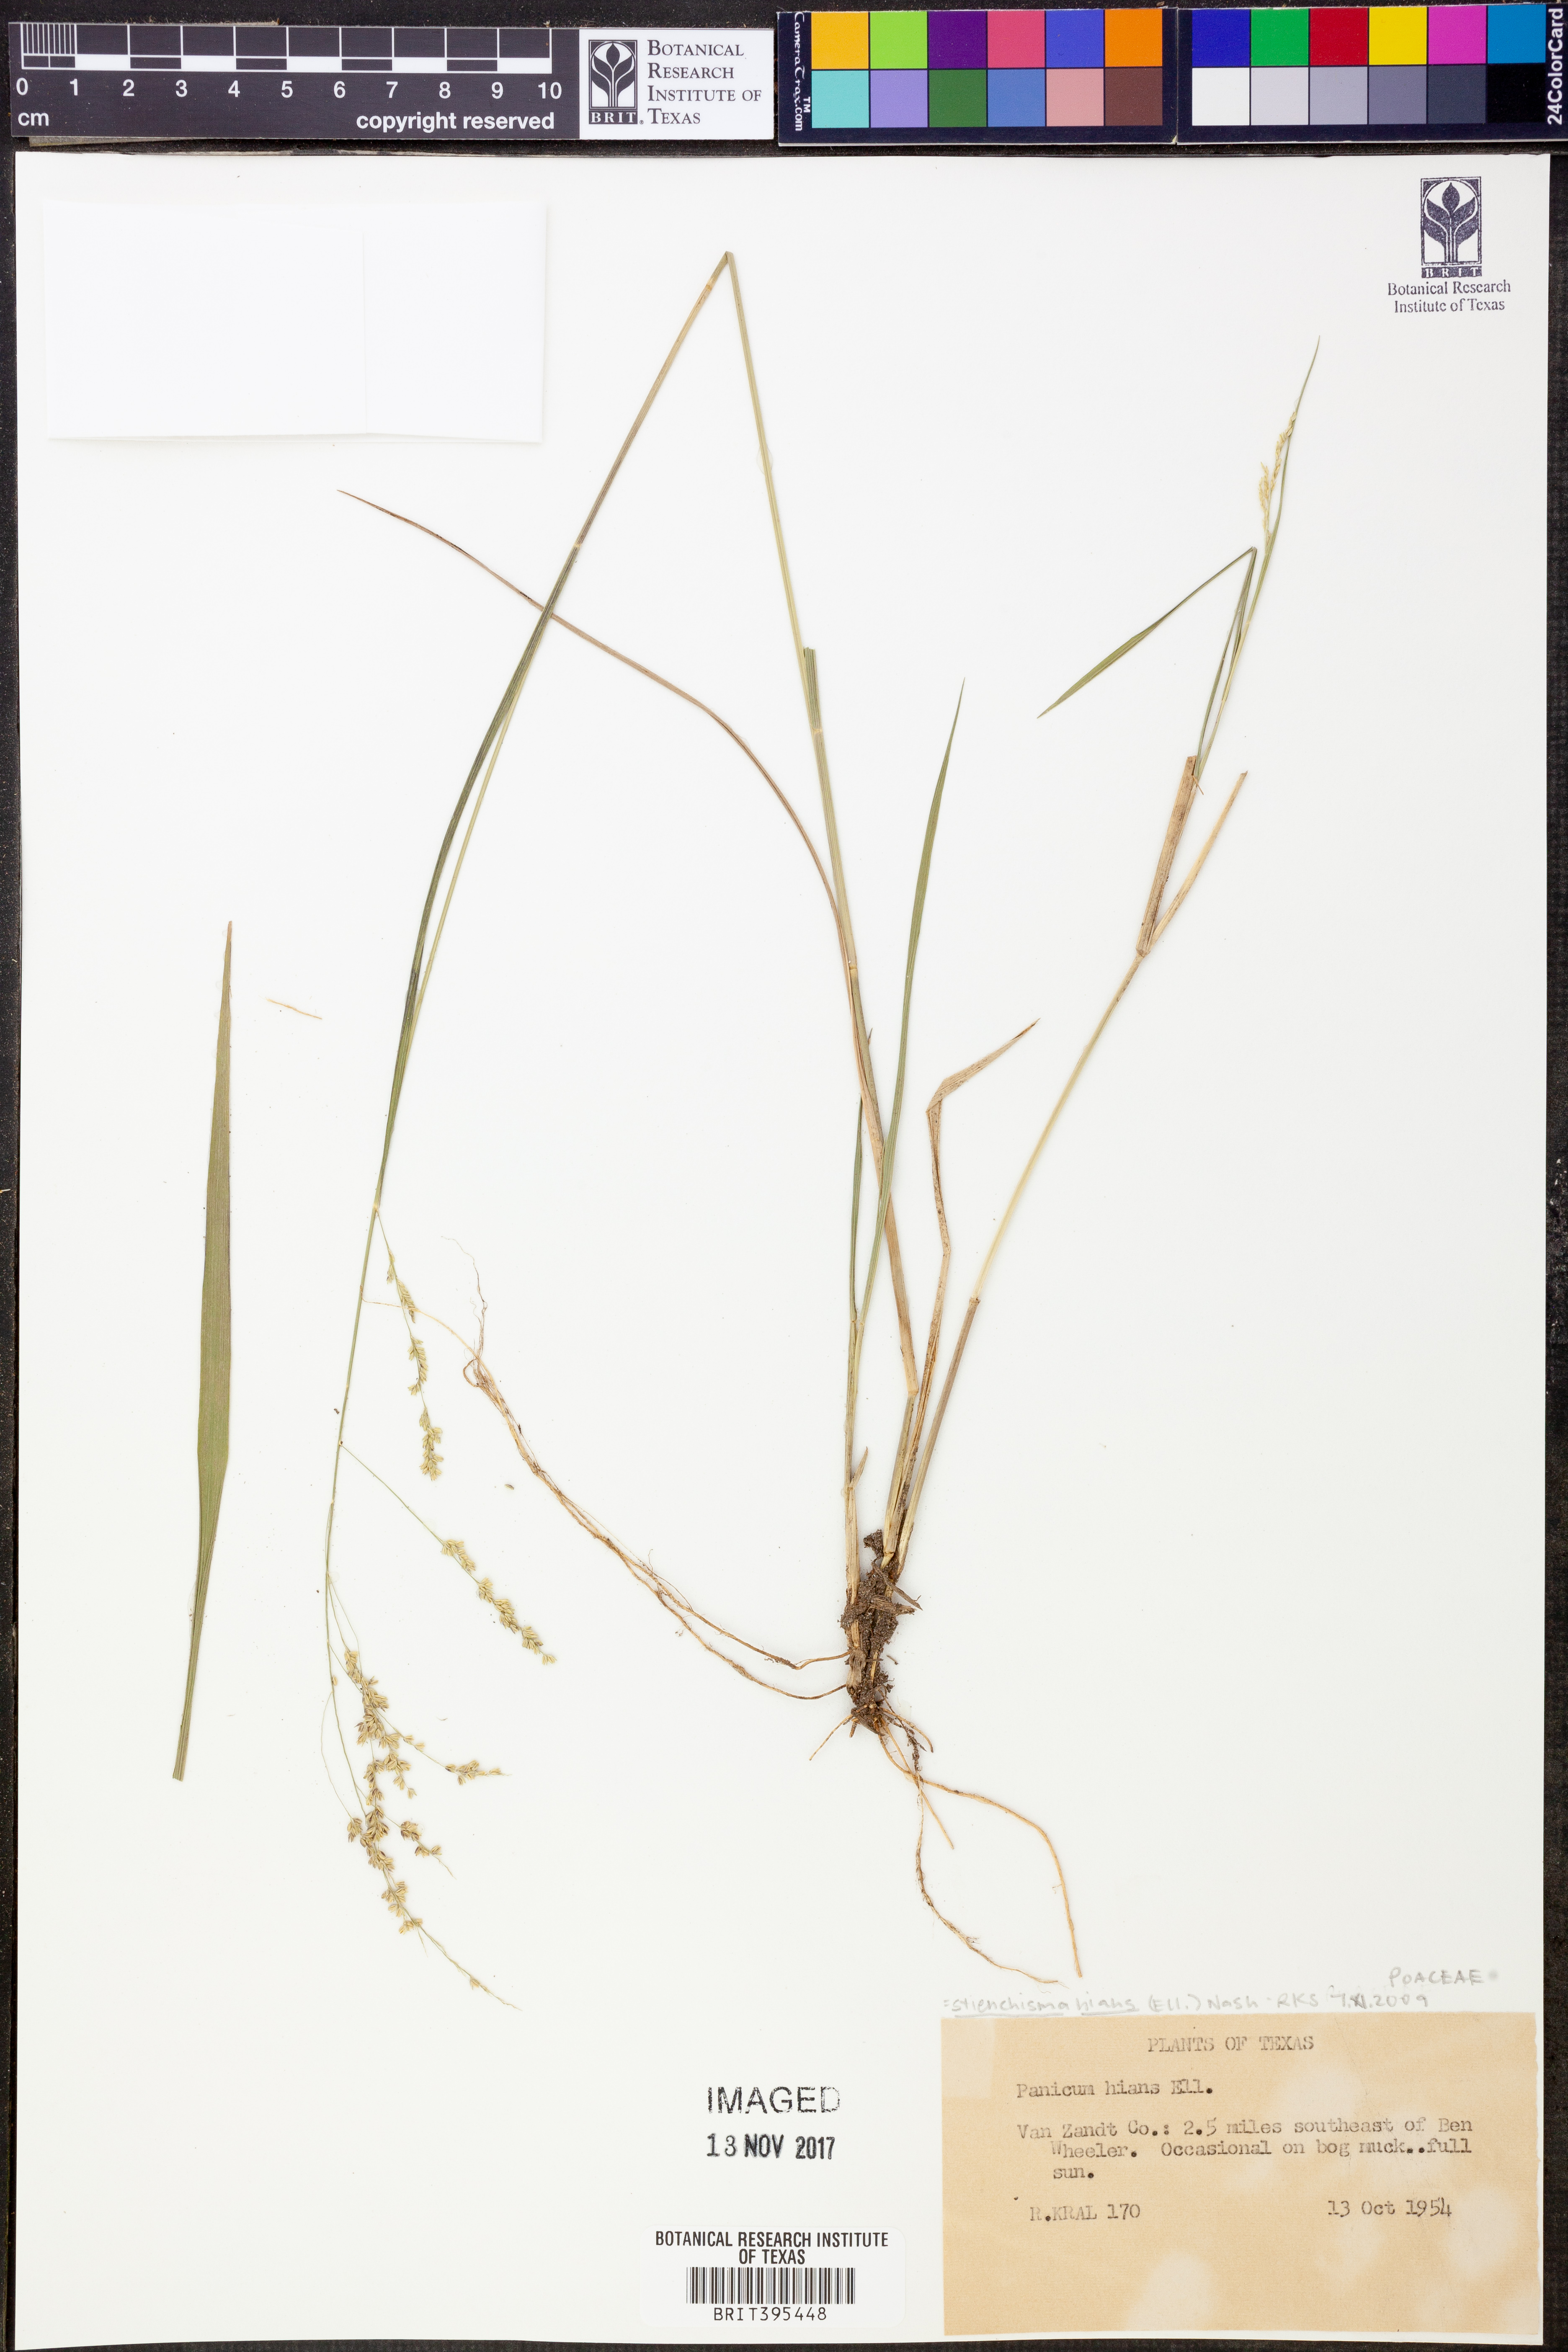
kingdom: Plantae
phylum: Tracheophyta
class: Liliopsida
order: Poales
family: Poaceae
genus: Steinchisma
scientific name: Steinchisma hians
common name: Gaping panic grass
